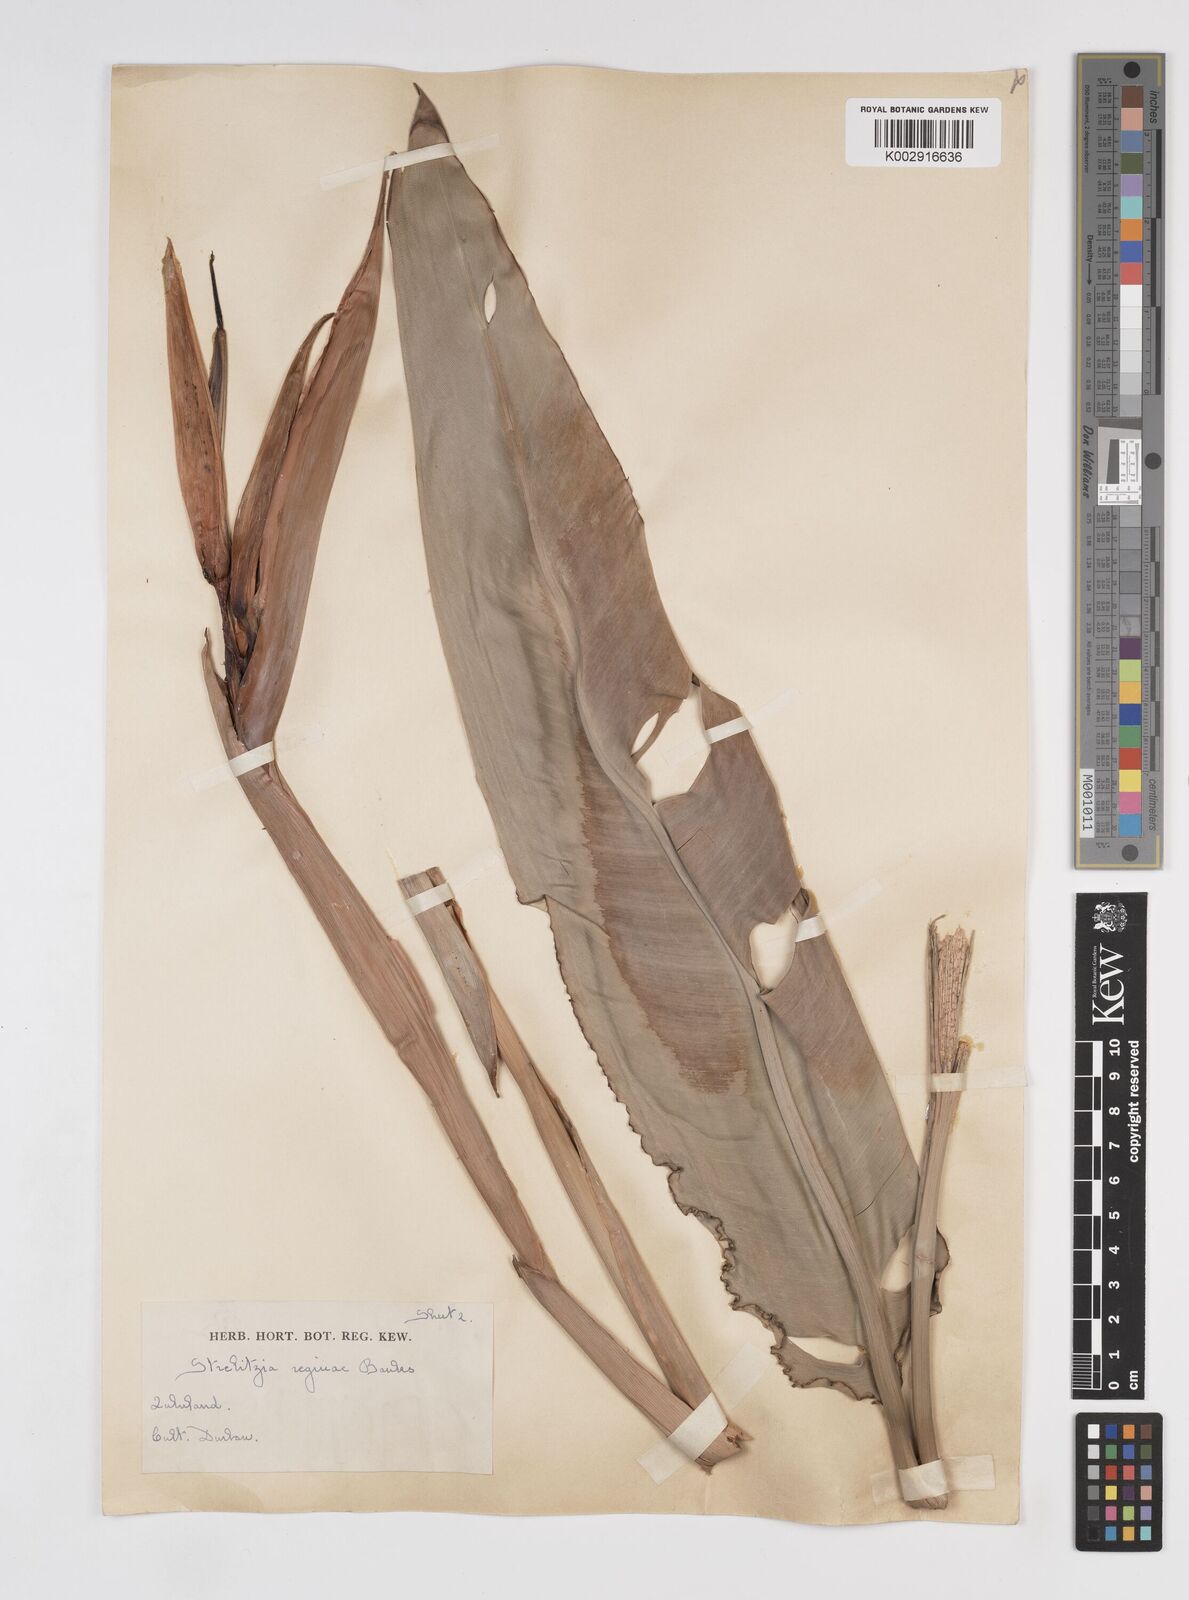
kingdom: Plantae
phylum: Tracheophyta
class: Liliopsida
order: Zingiberales
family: Strelitziaceae
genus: Strelitzia
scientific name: Strelitzia reginae
